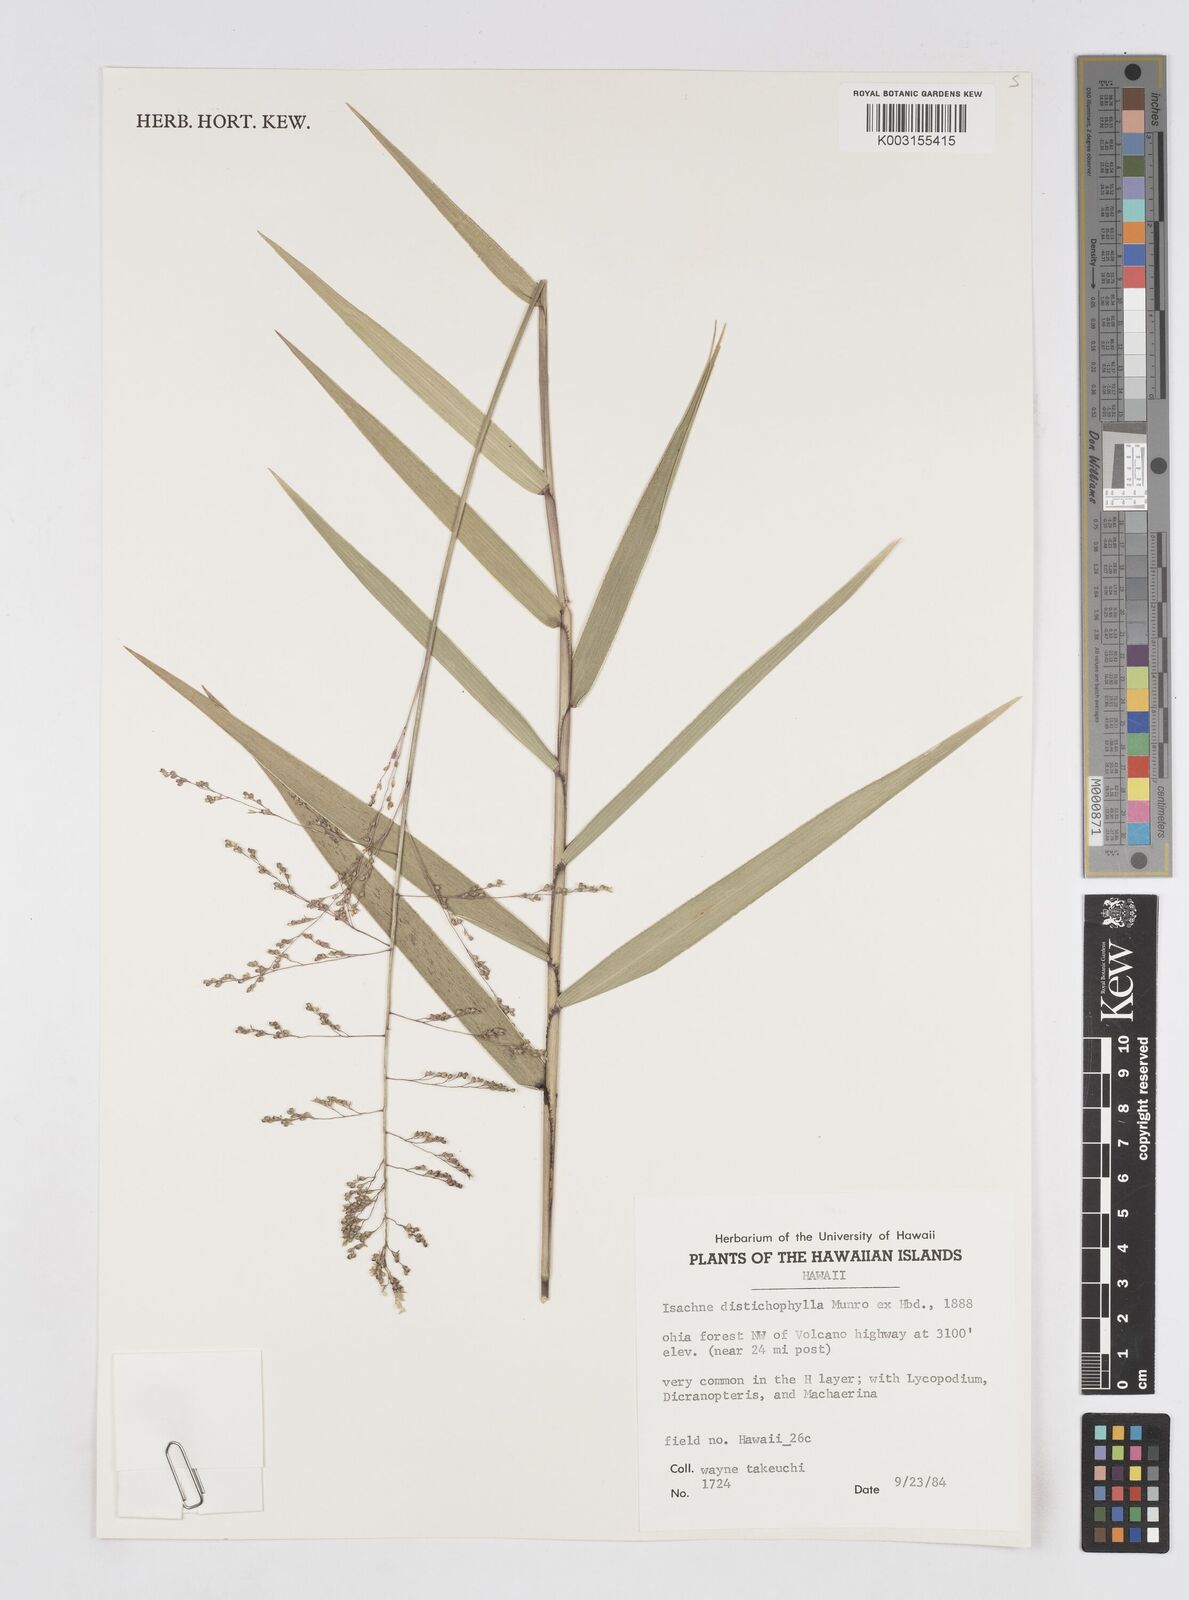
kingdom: Plantae
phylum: Tracheophyta
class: Liliopsida
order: Poales
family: Poaceae
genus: Isachne
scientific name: Isachne distichophylla
